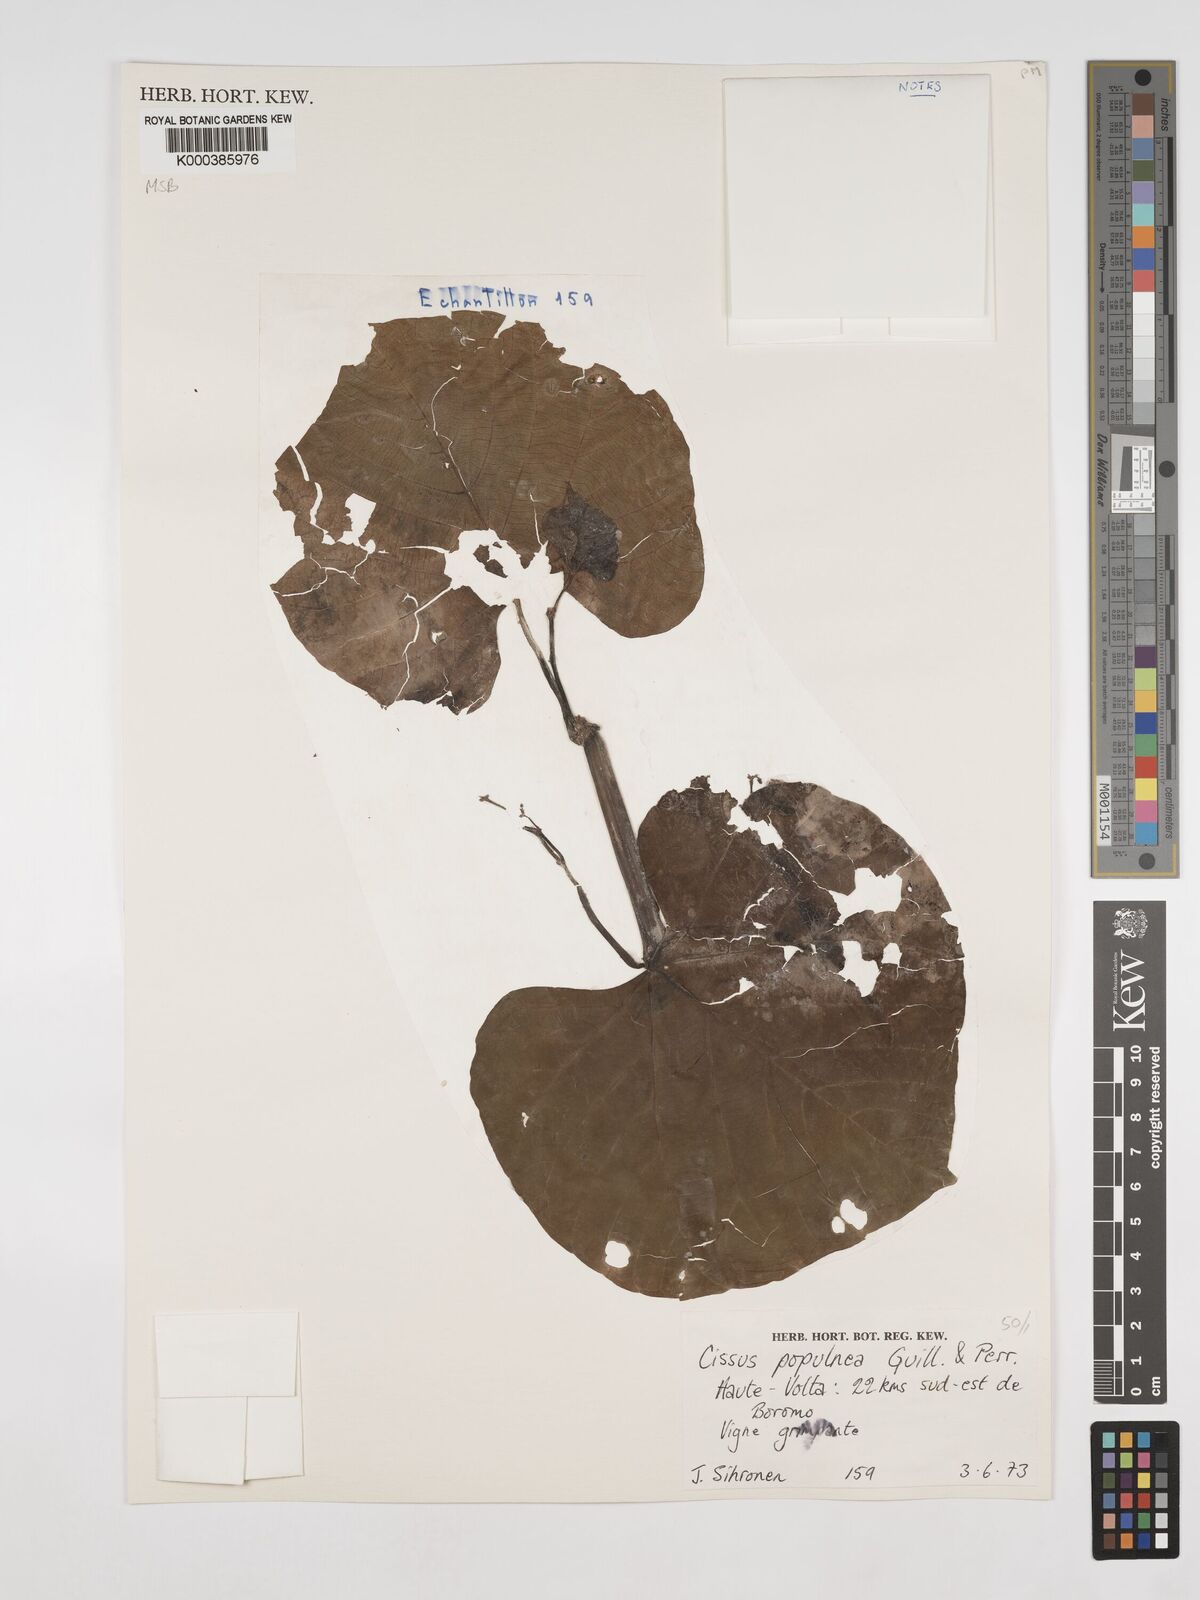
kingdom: Plantae
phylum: Tracheophyta
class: Magnoliopsida
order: Vitales
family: Vitaceae
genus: Cissus
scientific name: Cissus populnea
